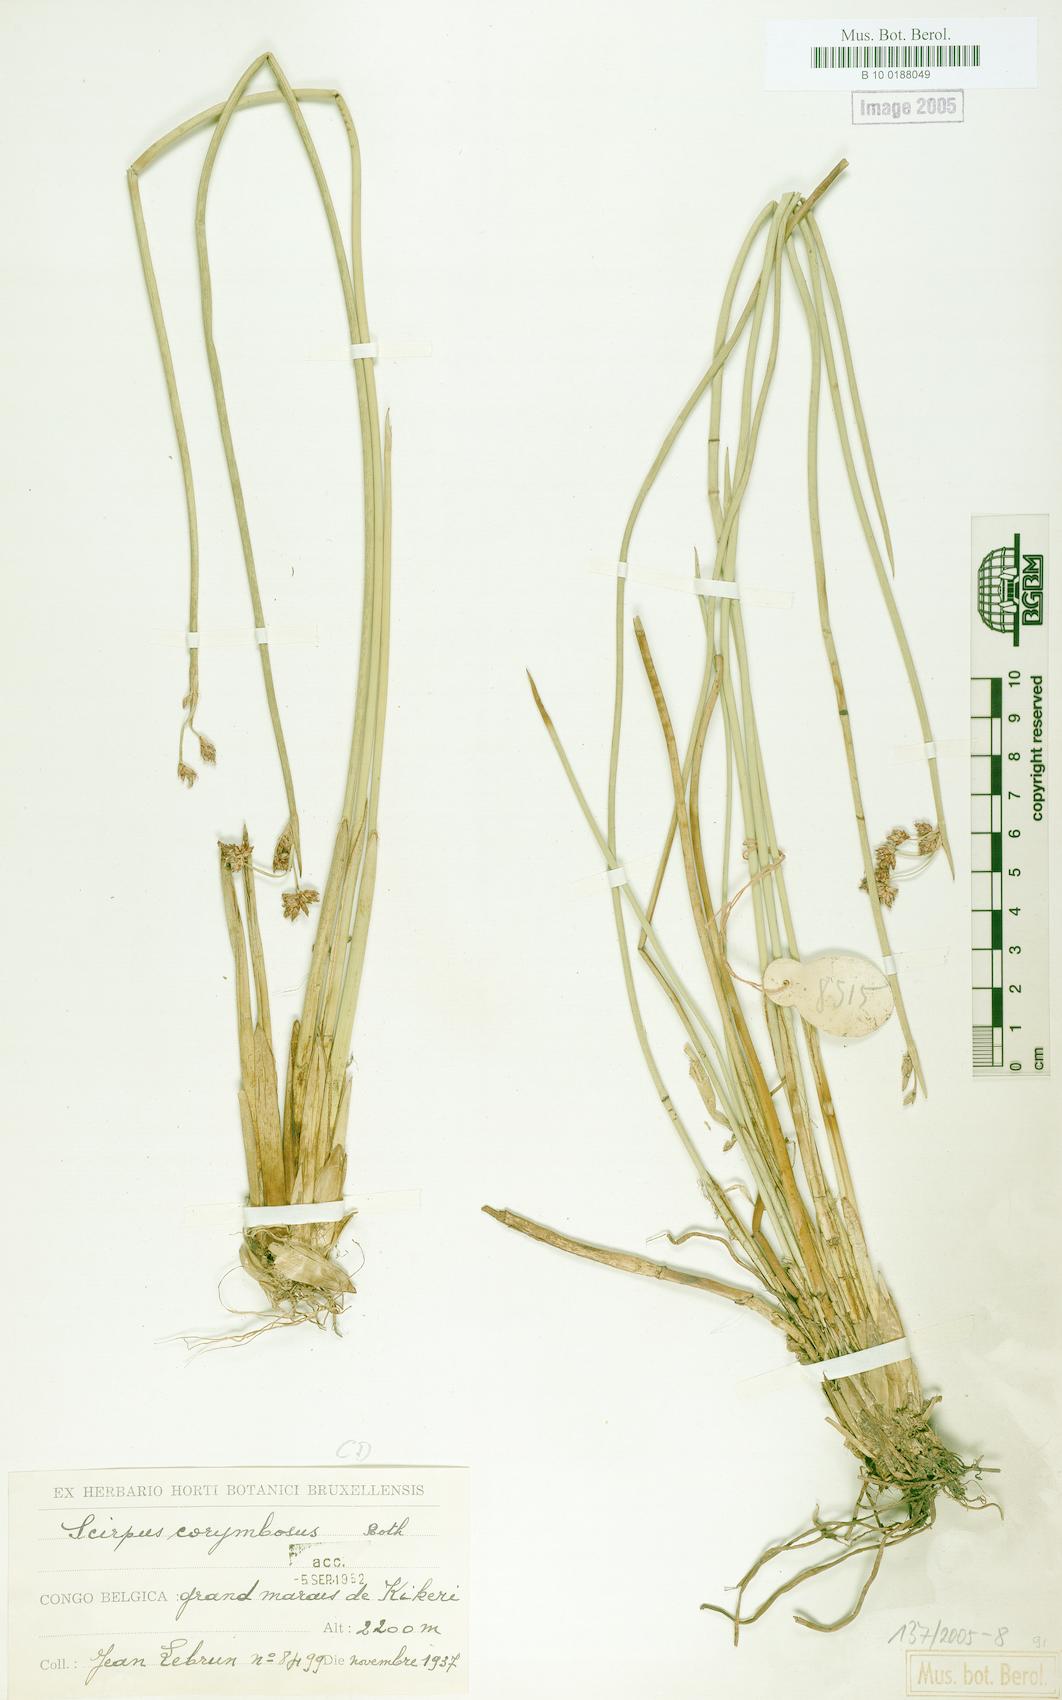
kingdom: Plantae
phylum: Tracheophyta
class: Liliopsida
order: Poales
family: Cyperaceae
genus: Scirpus
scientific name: Scirpus corymbosus
